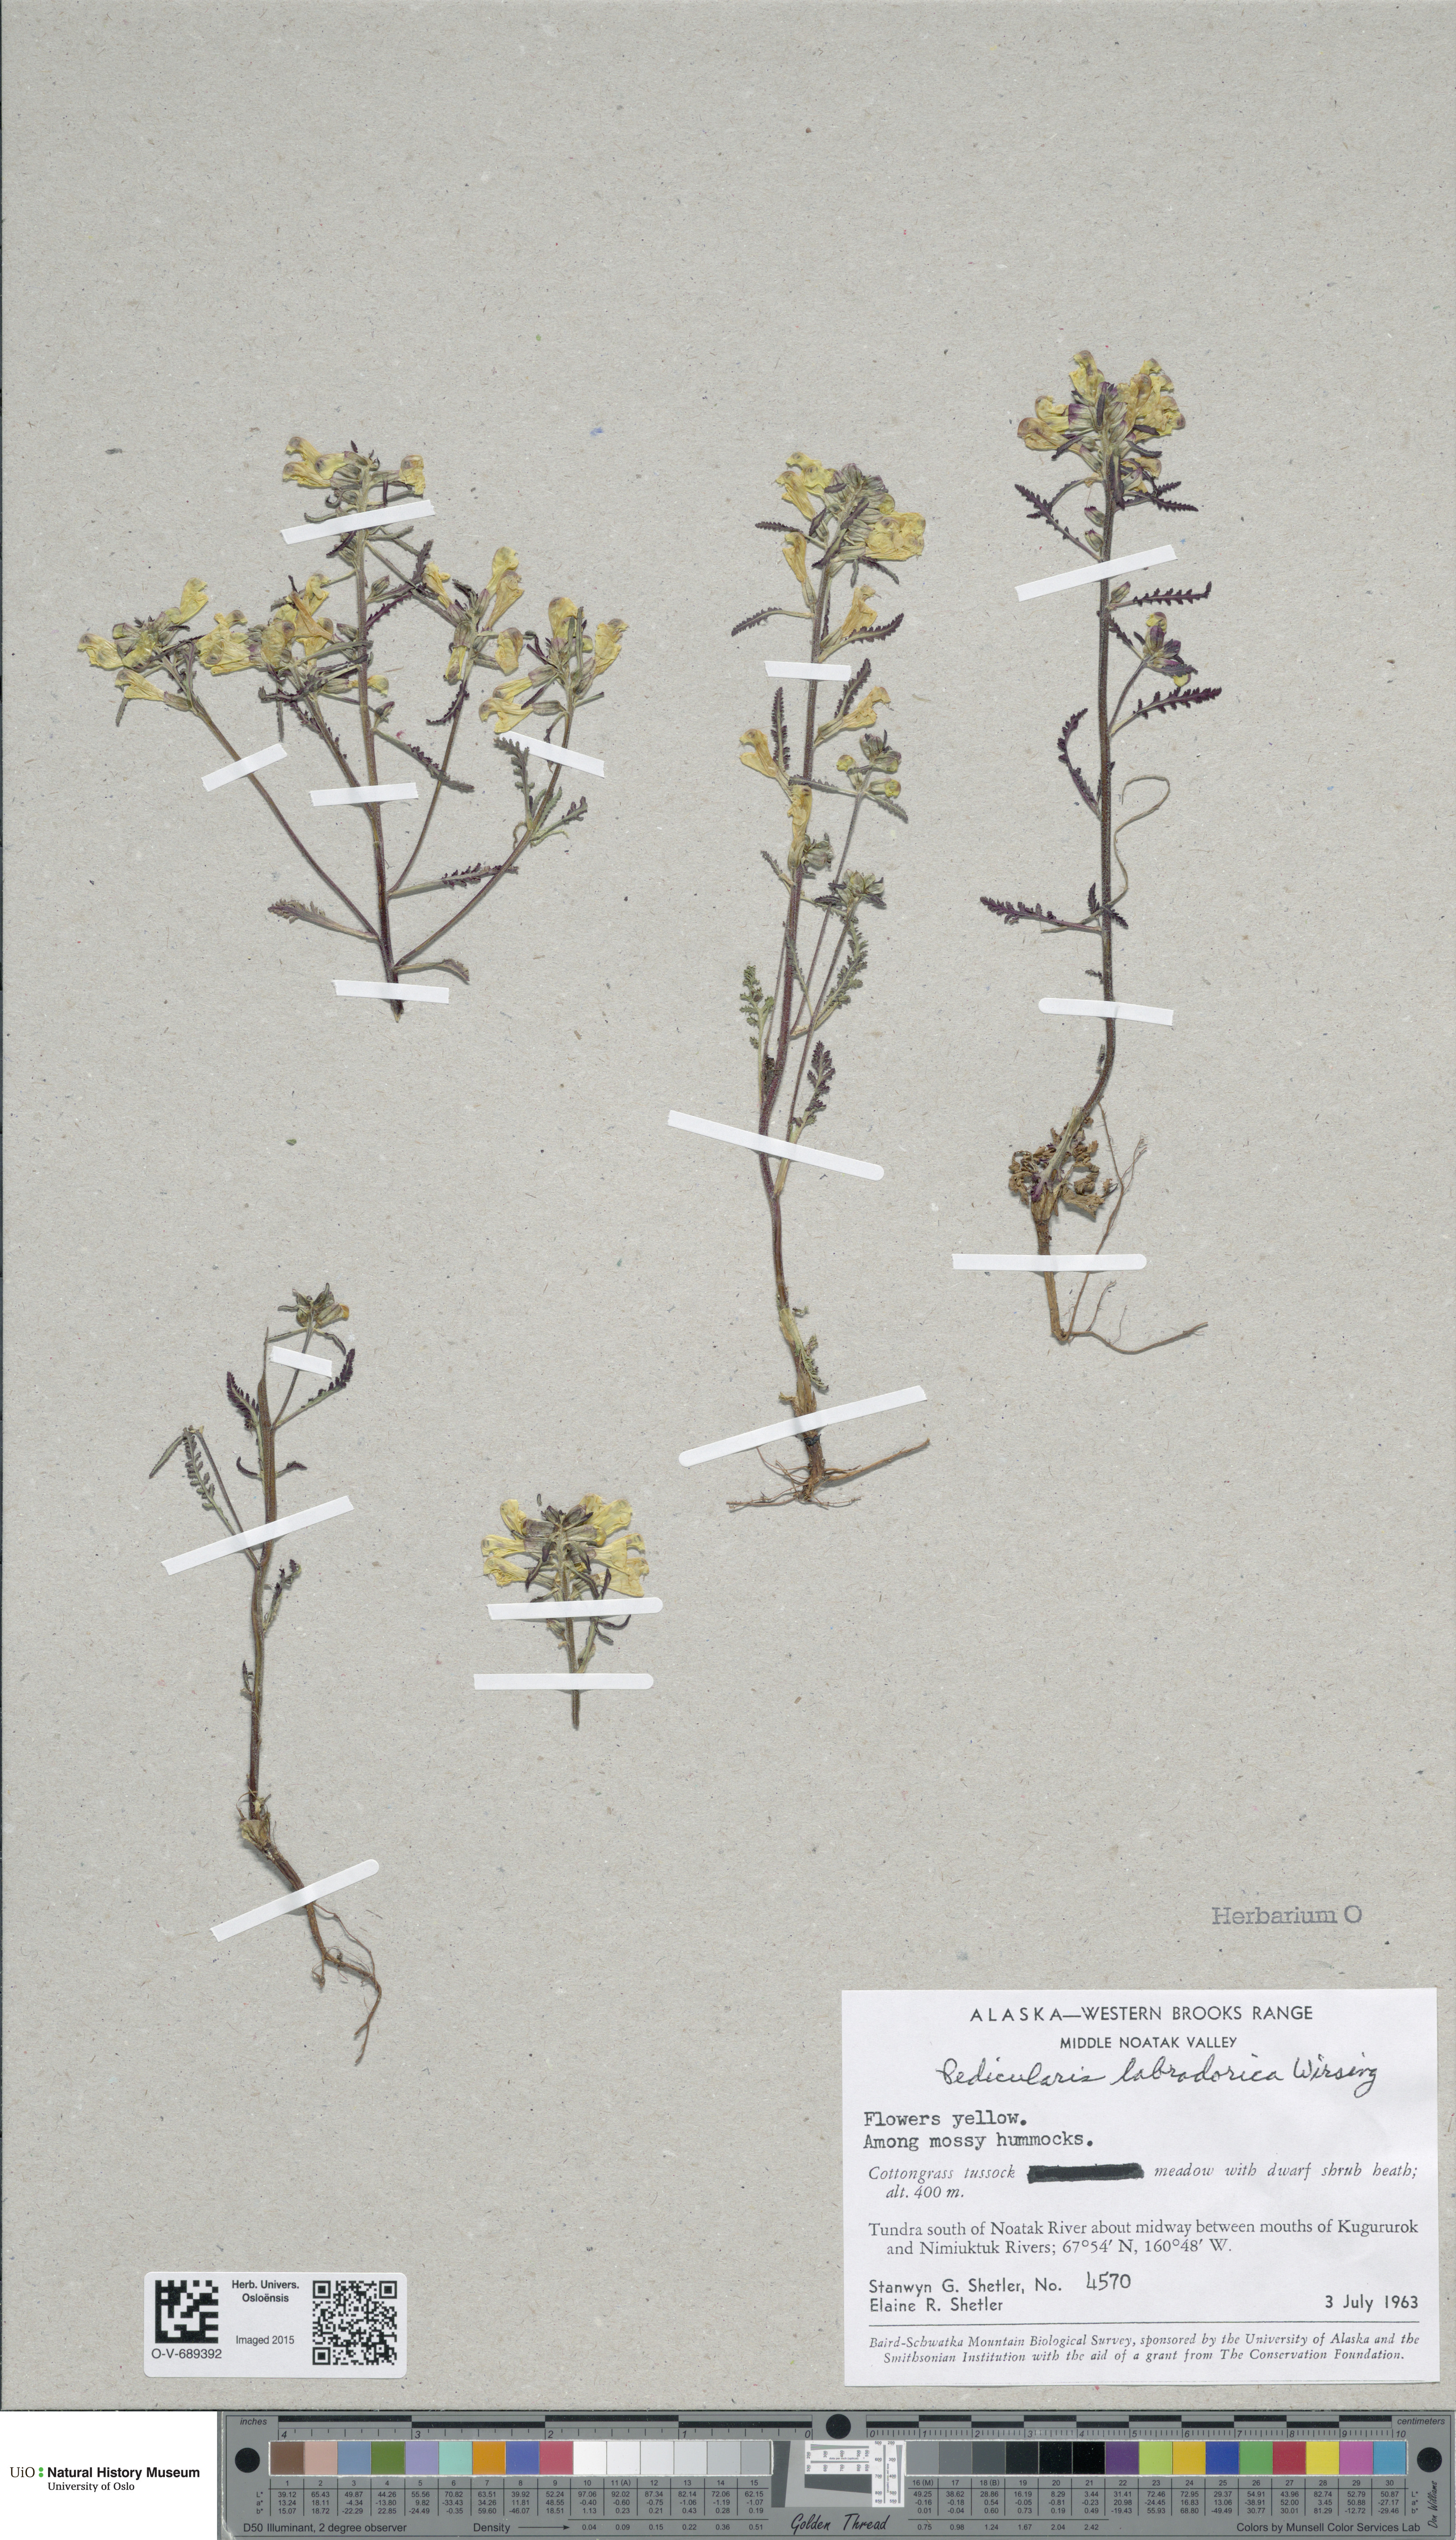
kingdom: Plantae
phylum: Tracheophyta
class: Magnoliopsida
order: Lamiales
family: Orobanchaceae
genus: Pedicularis
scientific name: Pedicularis labradorica
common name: Labrador lousewort
